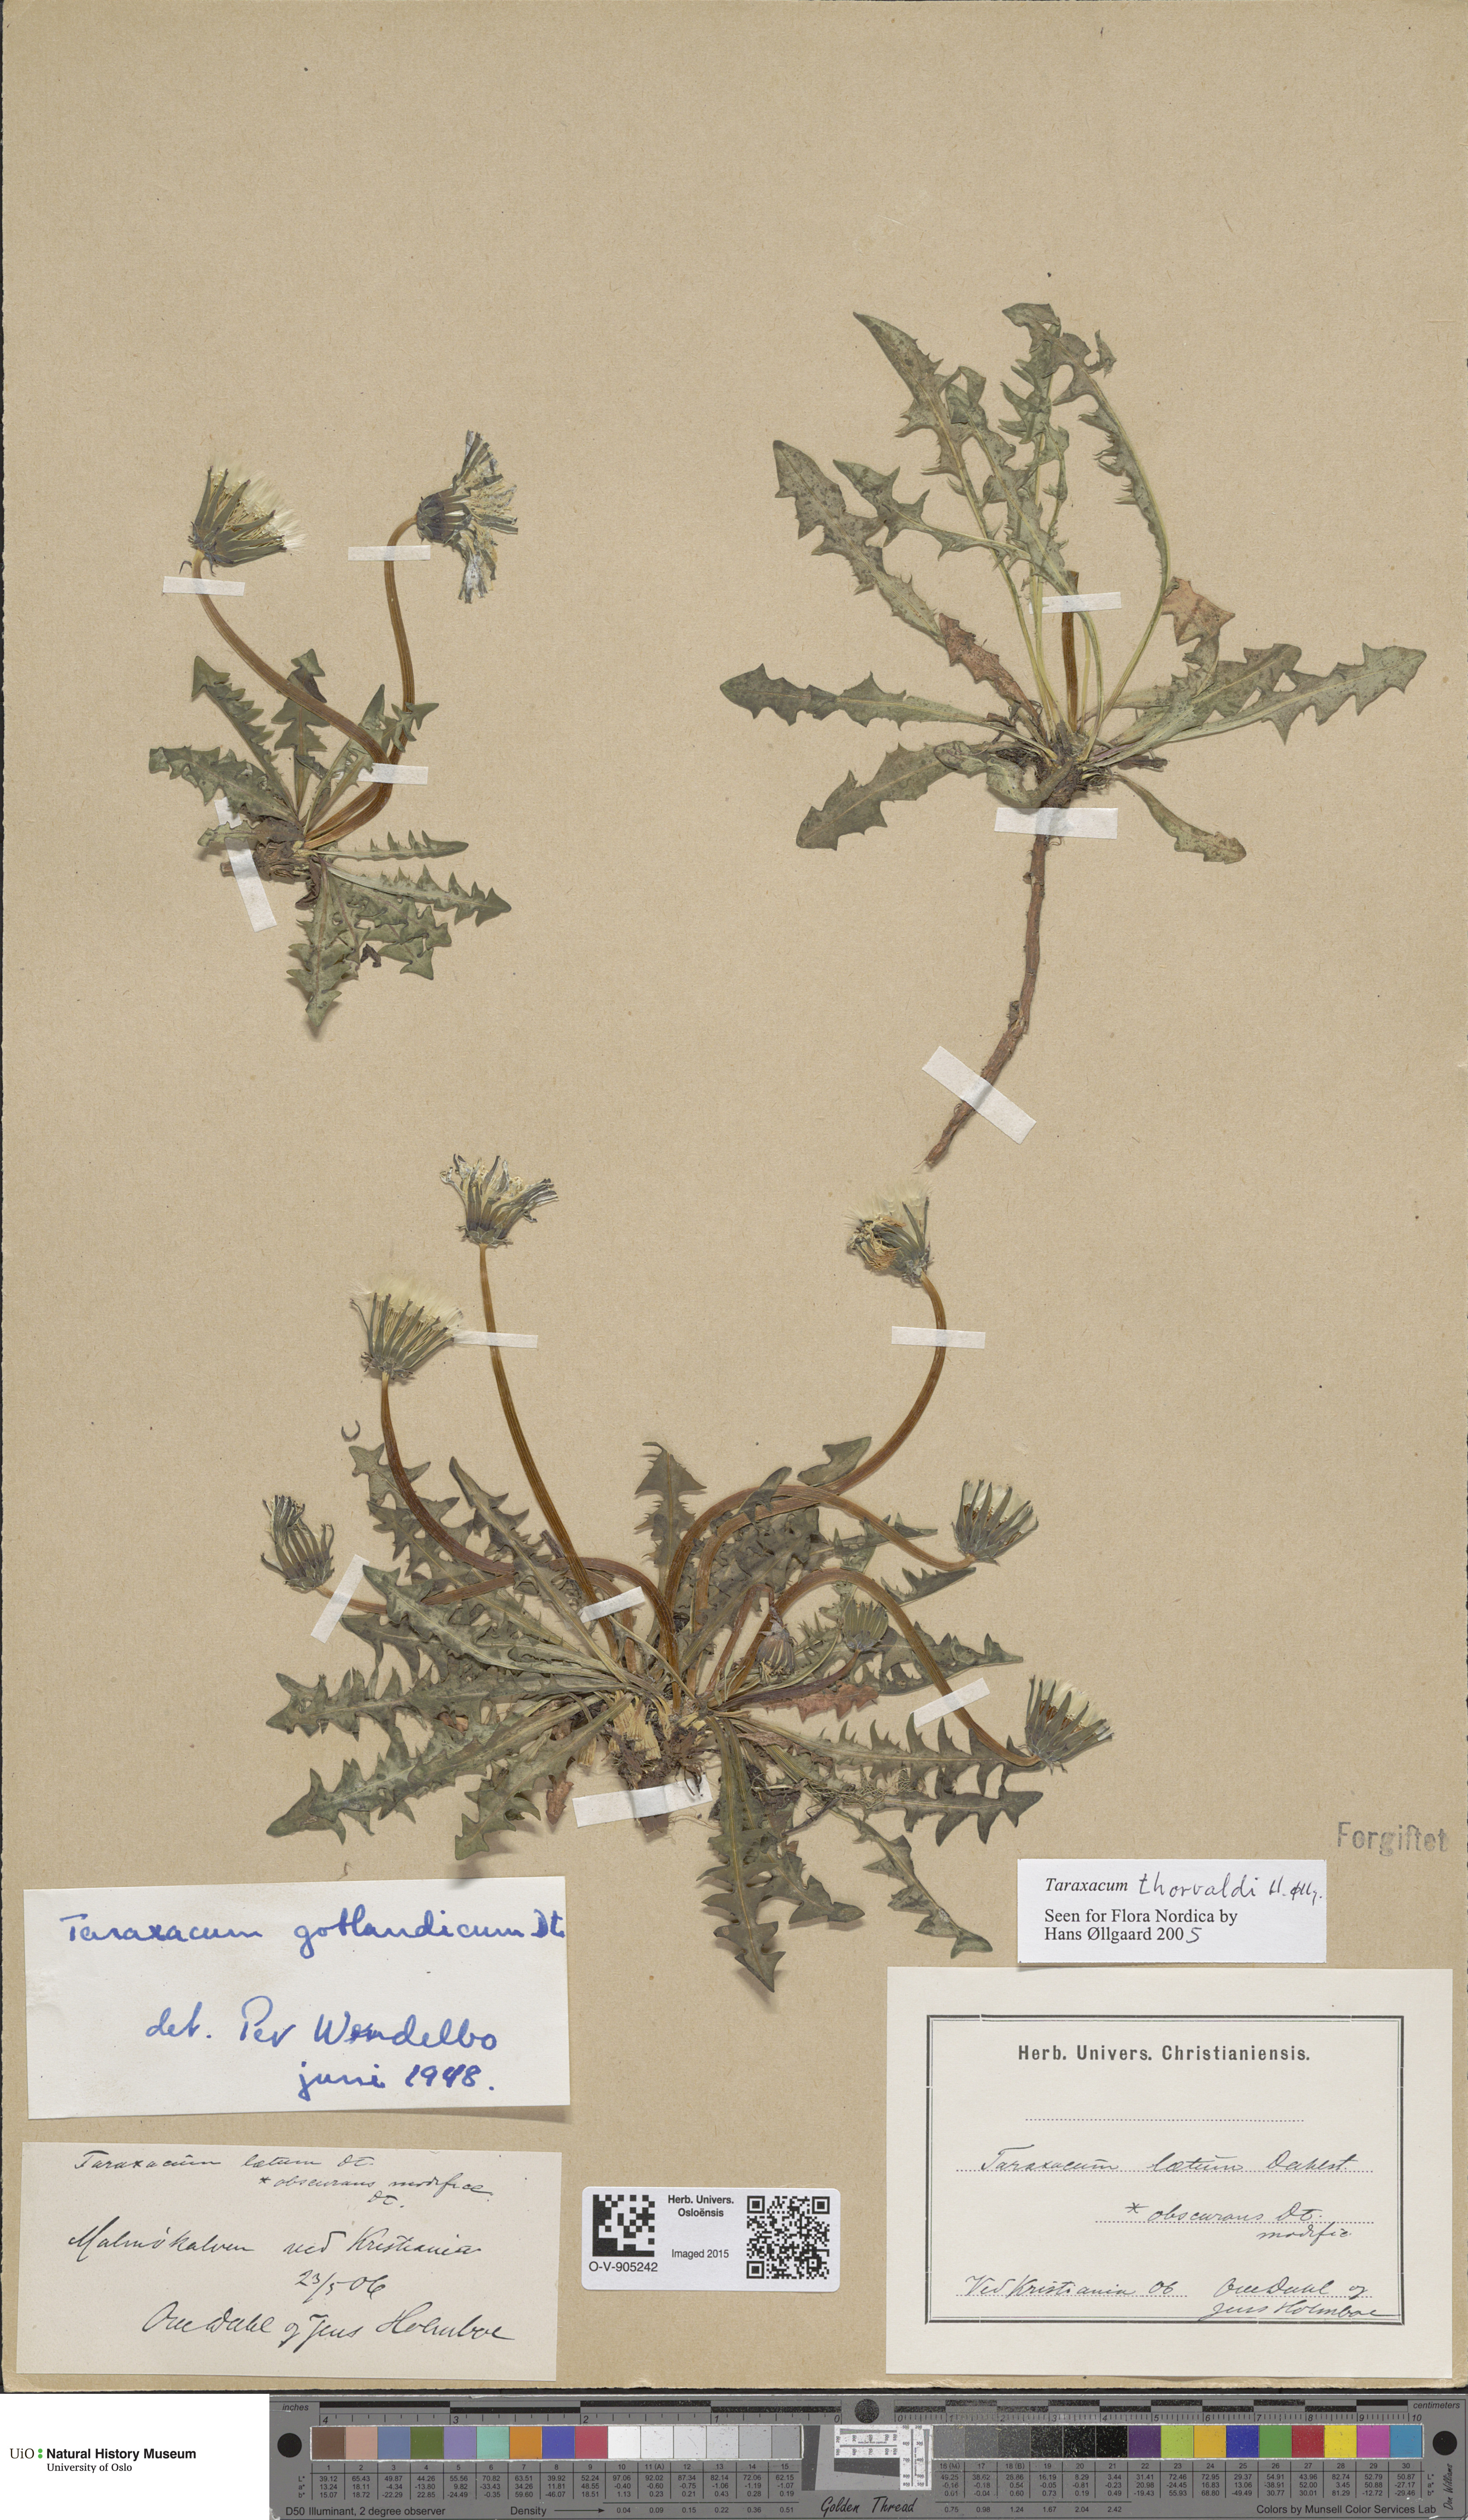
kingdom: Plantae
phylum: Tracheophyta
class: Magnoliopsida
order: Asterales
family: Asteraceae
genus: Taraxacum
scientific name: Taraxacum thorvaldii
